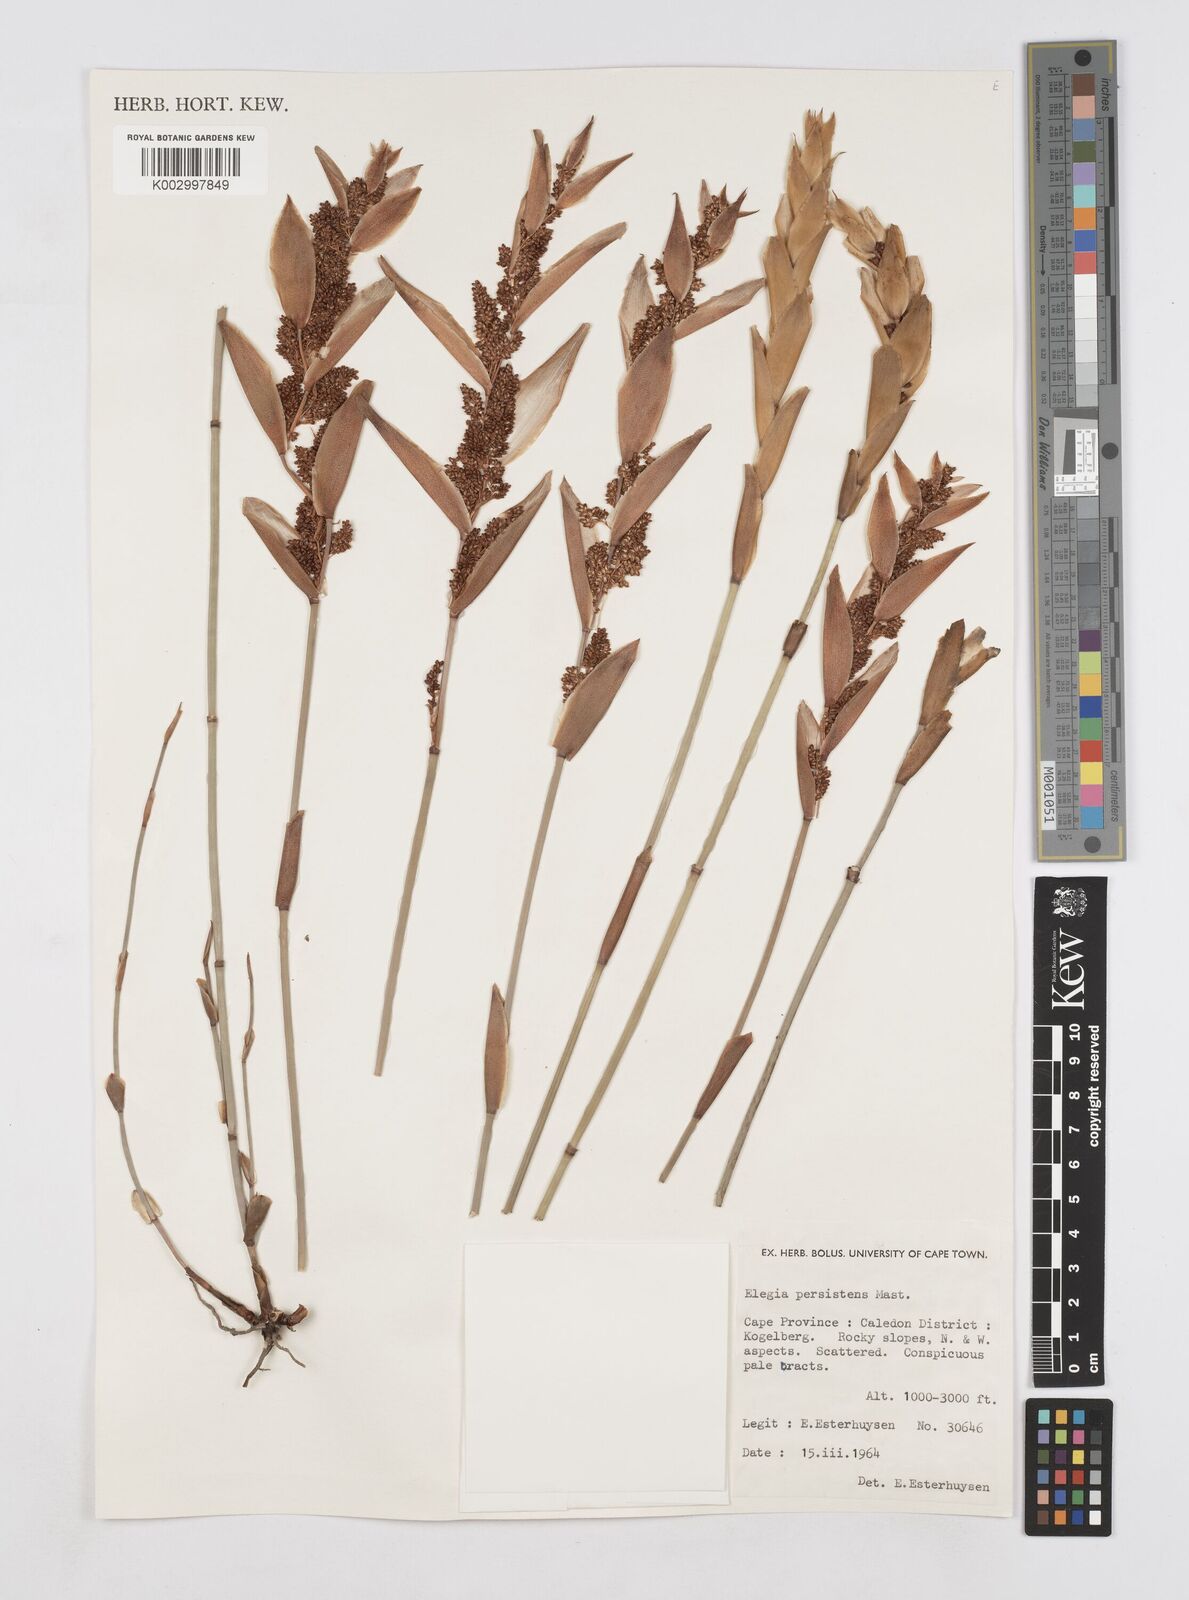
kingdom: Plantae
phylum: Tracheophyta
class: Liliopsida
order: Poales
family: Restionaceae
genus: Elegia
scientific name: Elegia persistens
